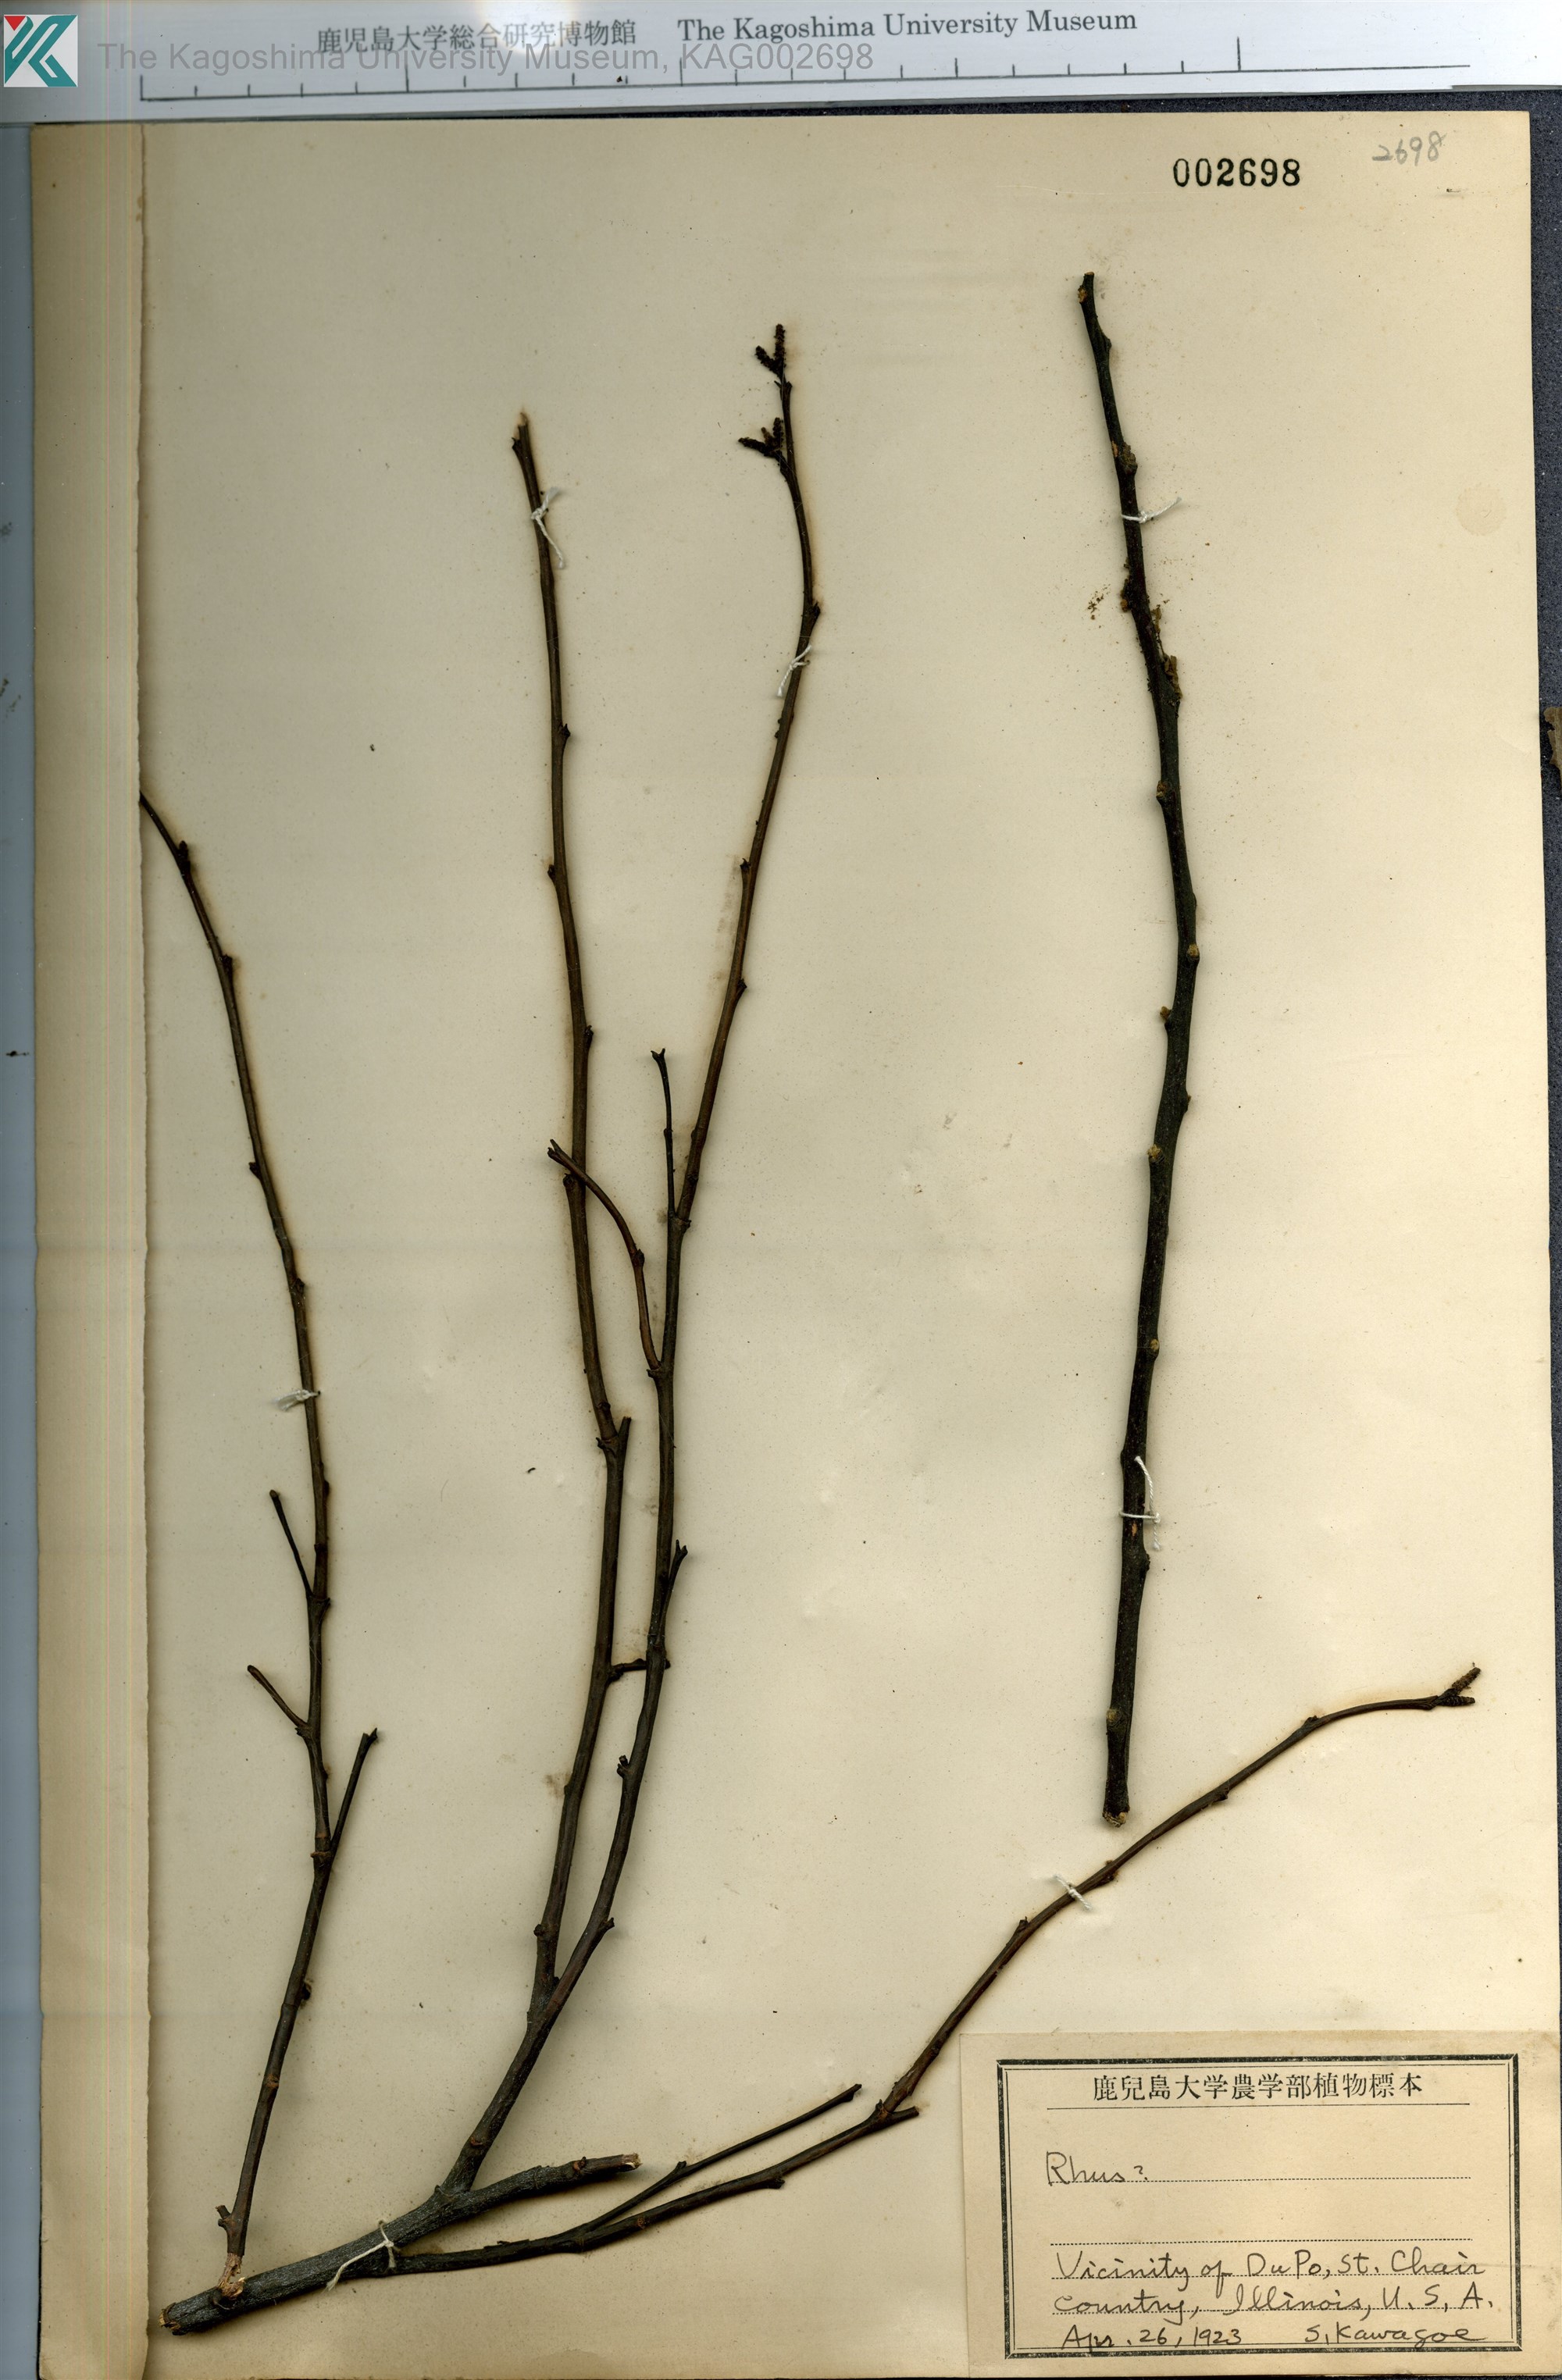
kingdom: Plantae
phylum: Tracheophyta
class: Magnoliopsida
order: Sapindales
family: Anacardiaceae
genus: Rhus
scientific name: Rhus
